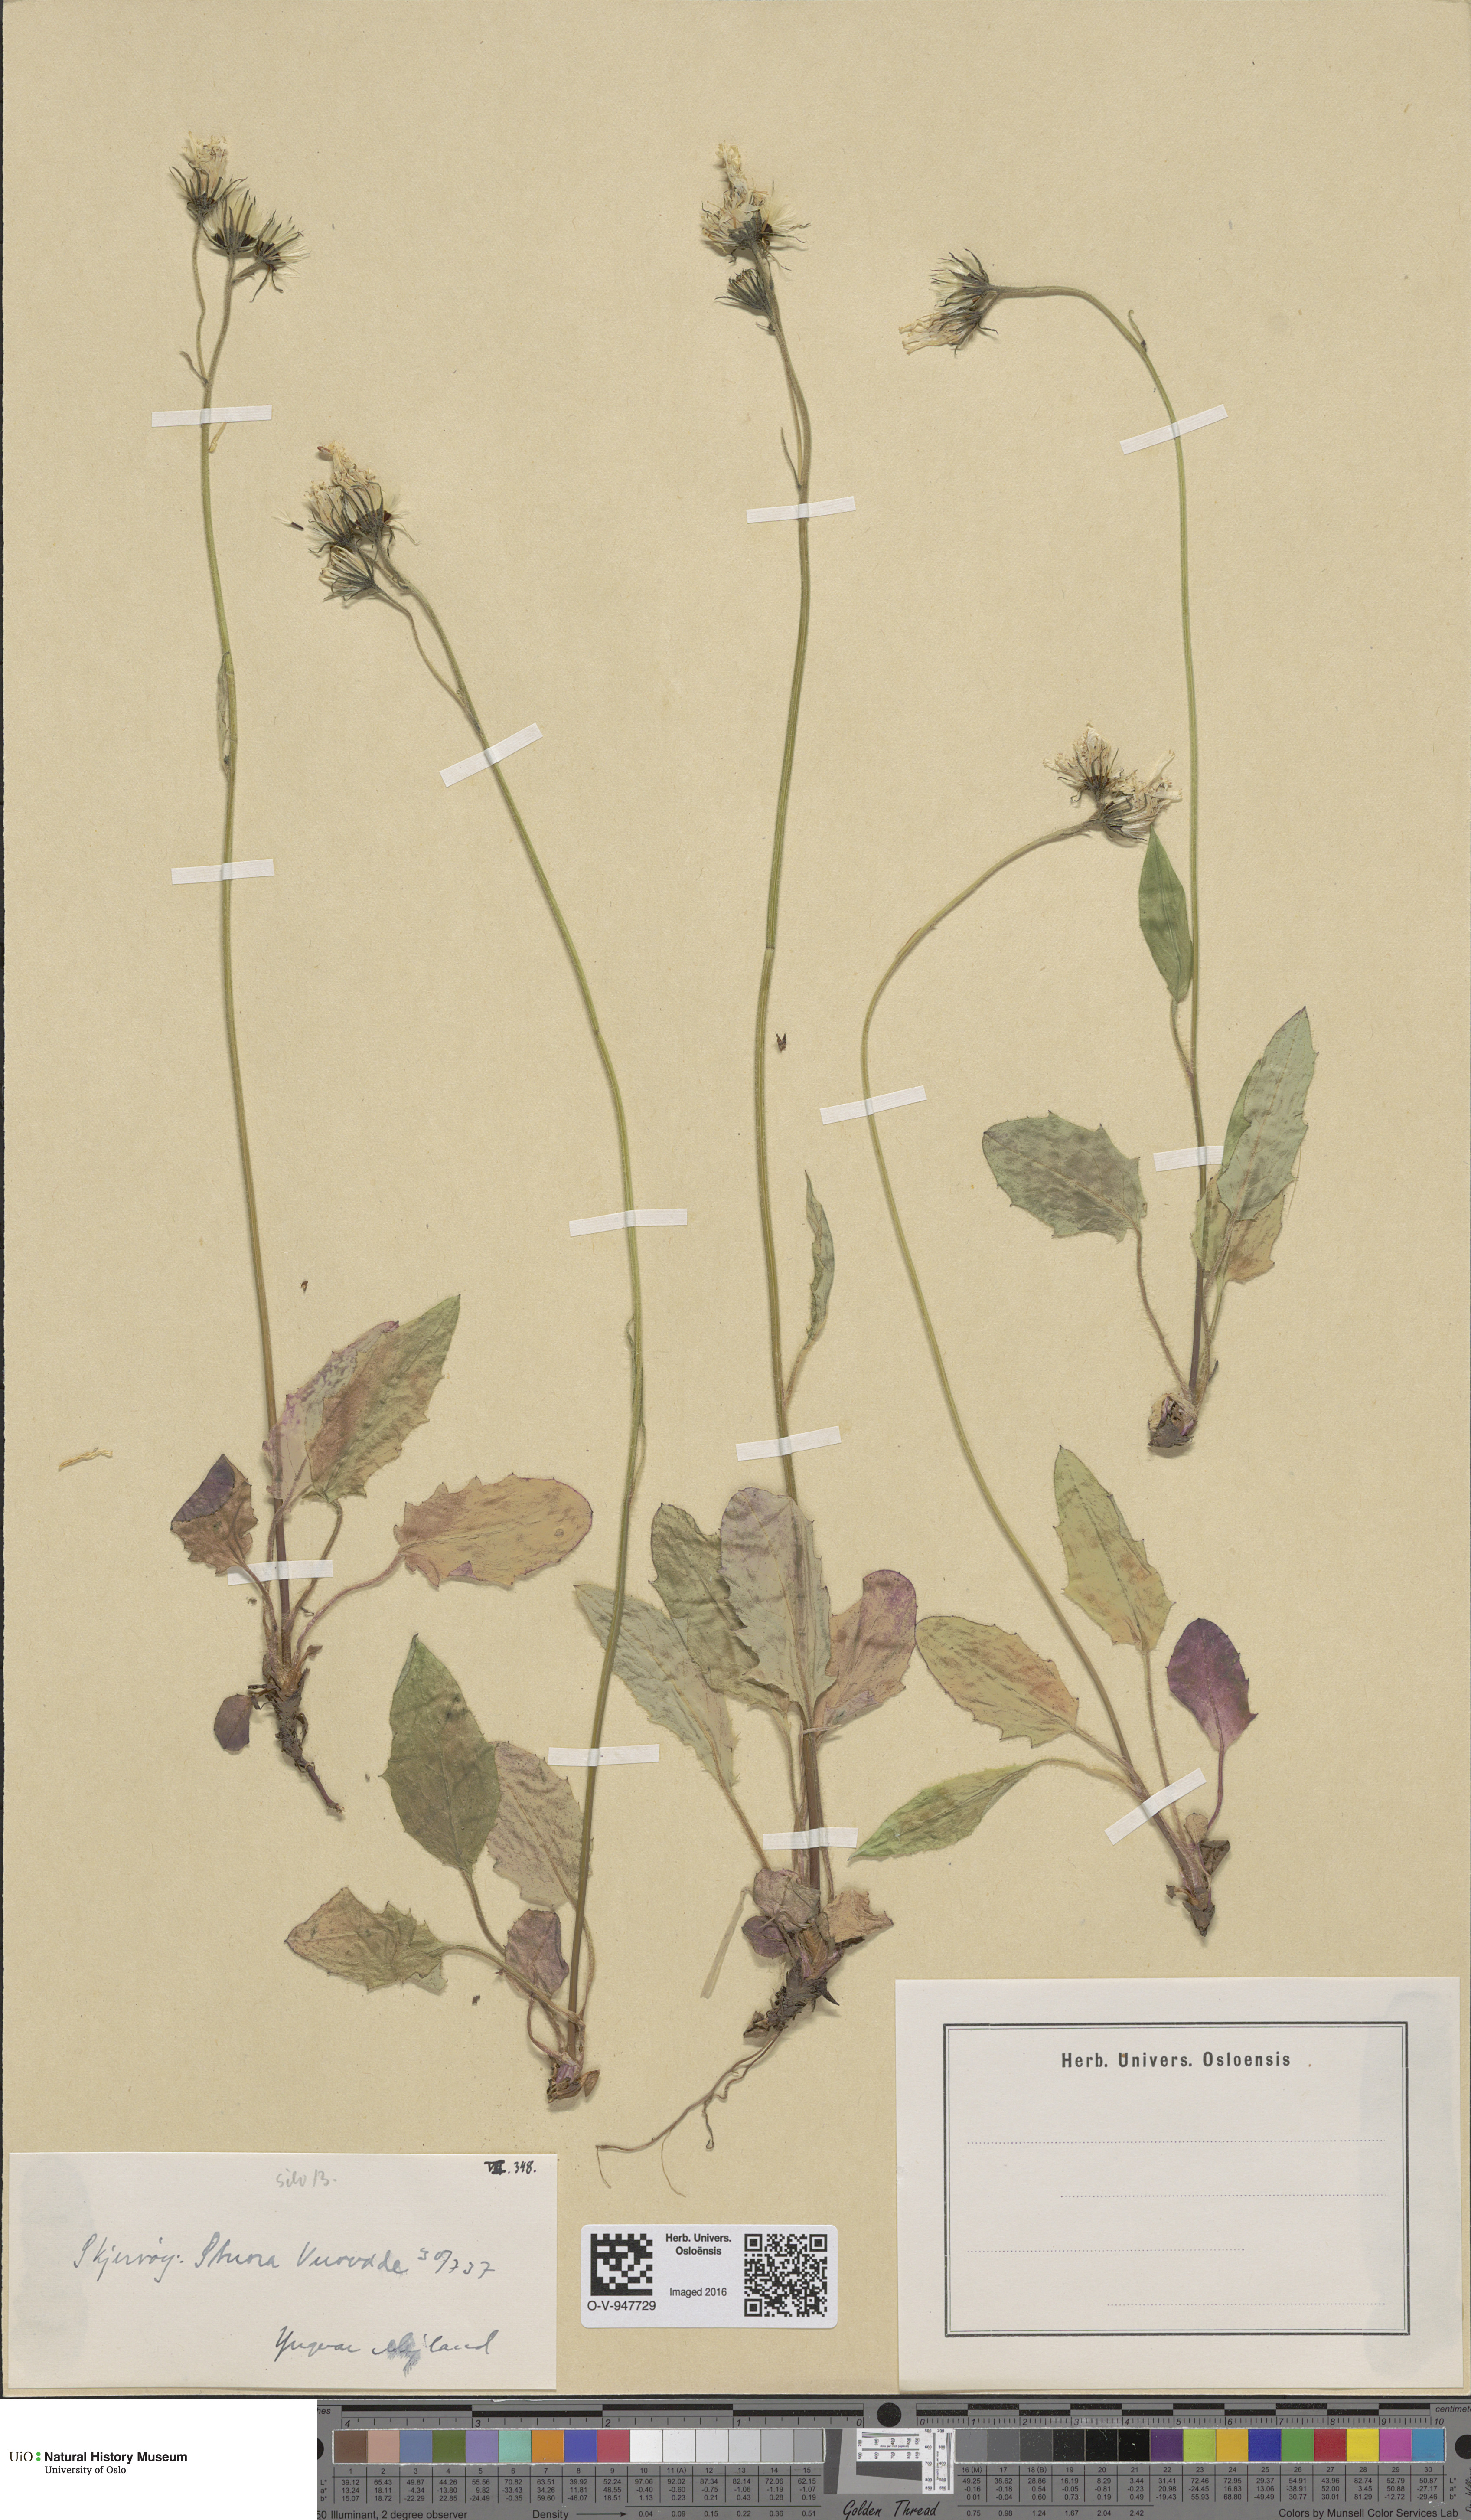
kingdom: Plantae
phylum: Tracheophyta
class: Magnoliopsida
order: Asterales
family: Asteraceae
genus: Hieracium
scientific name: Hieracium
